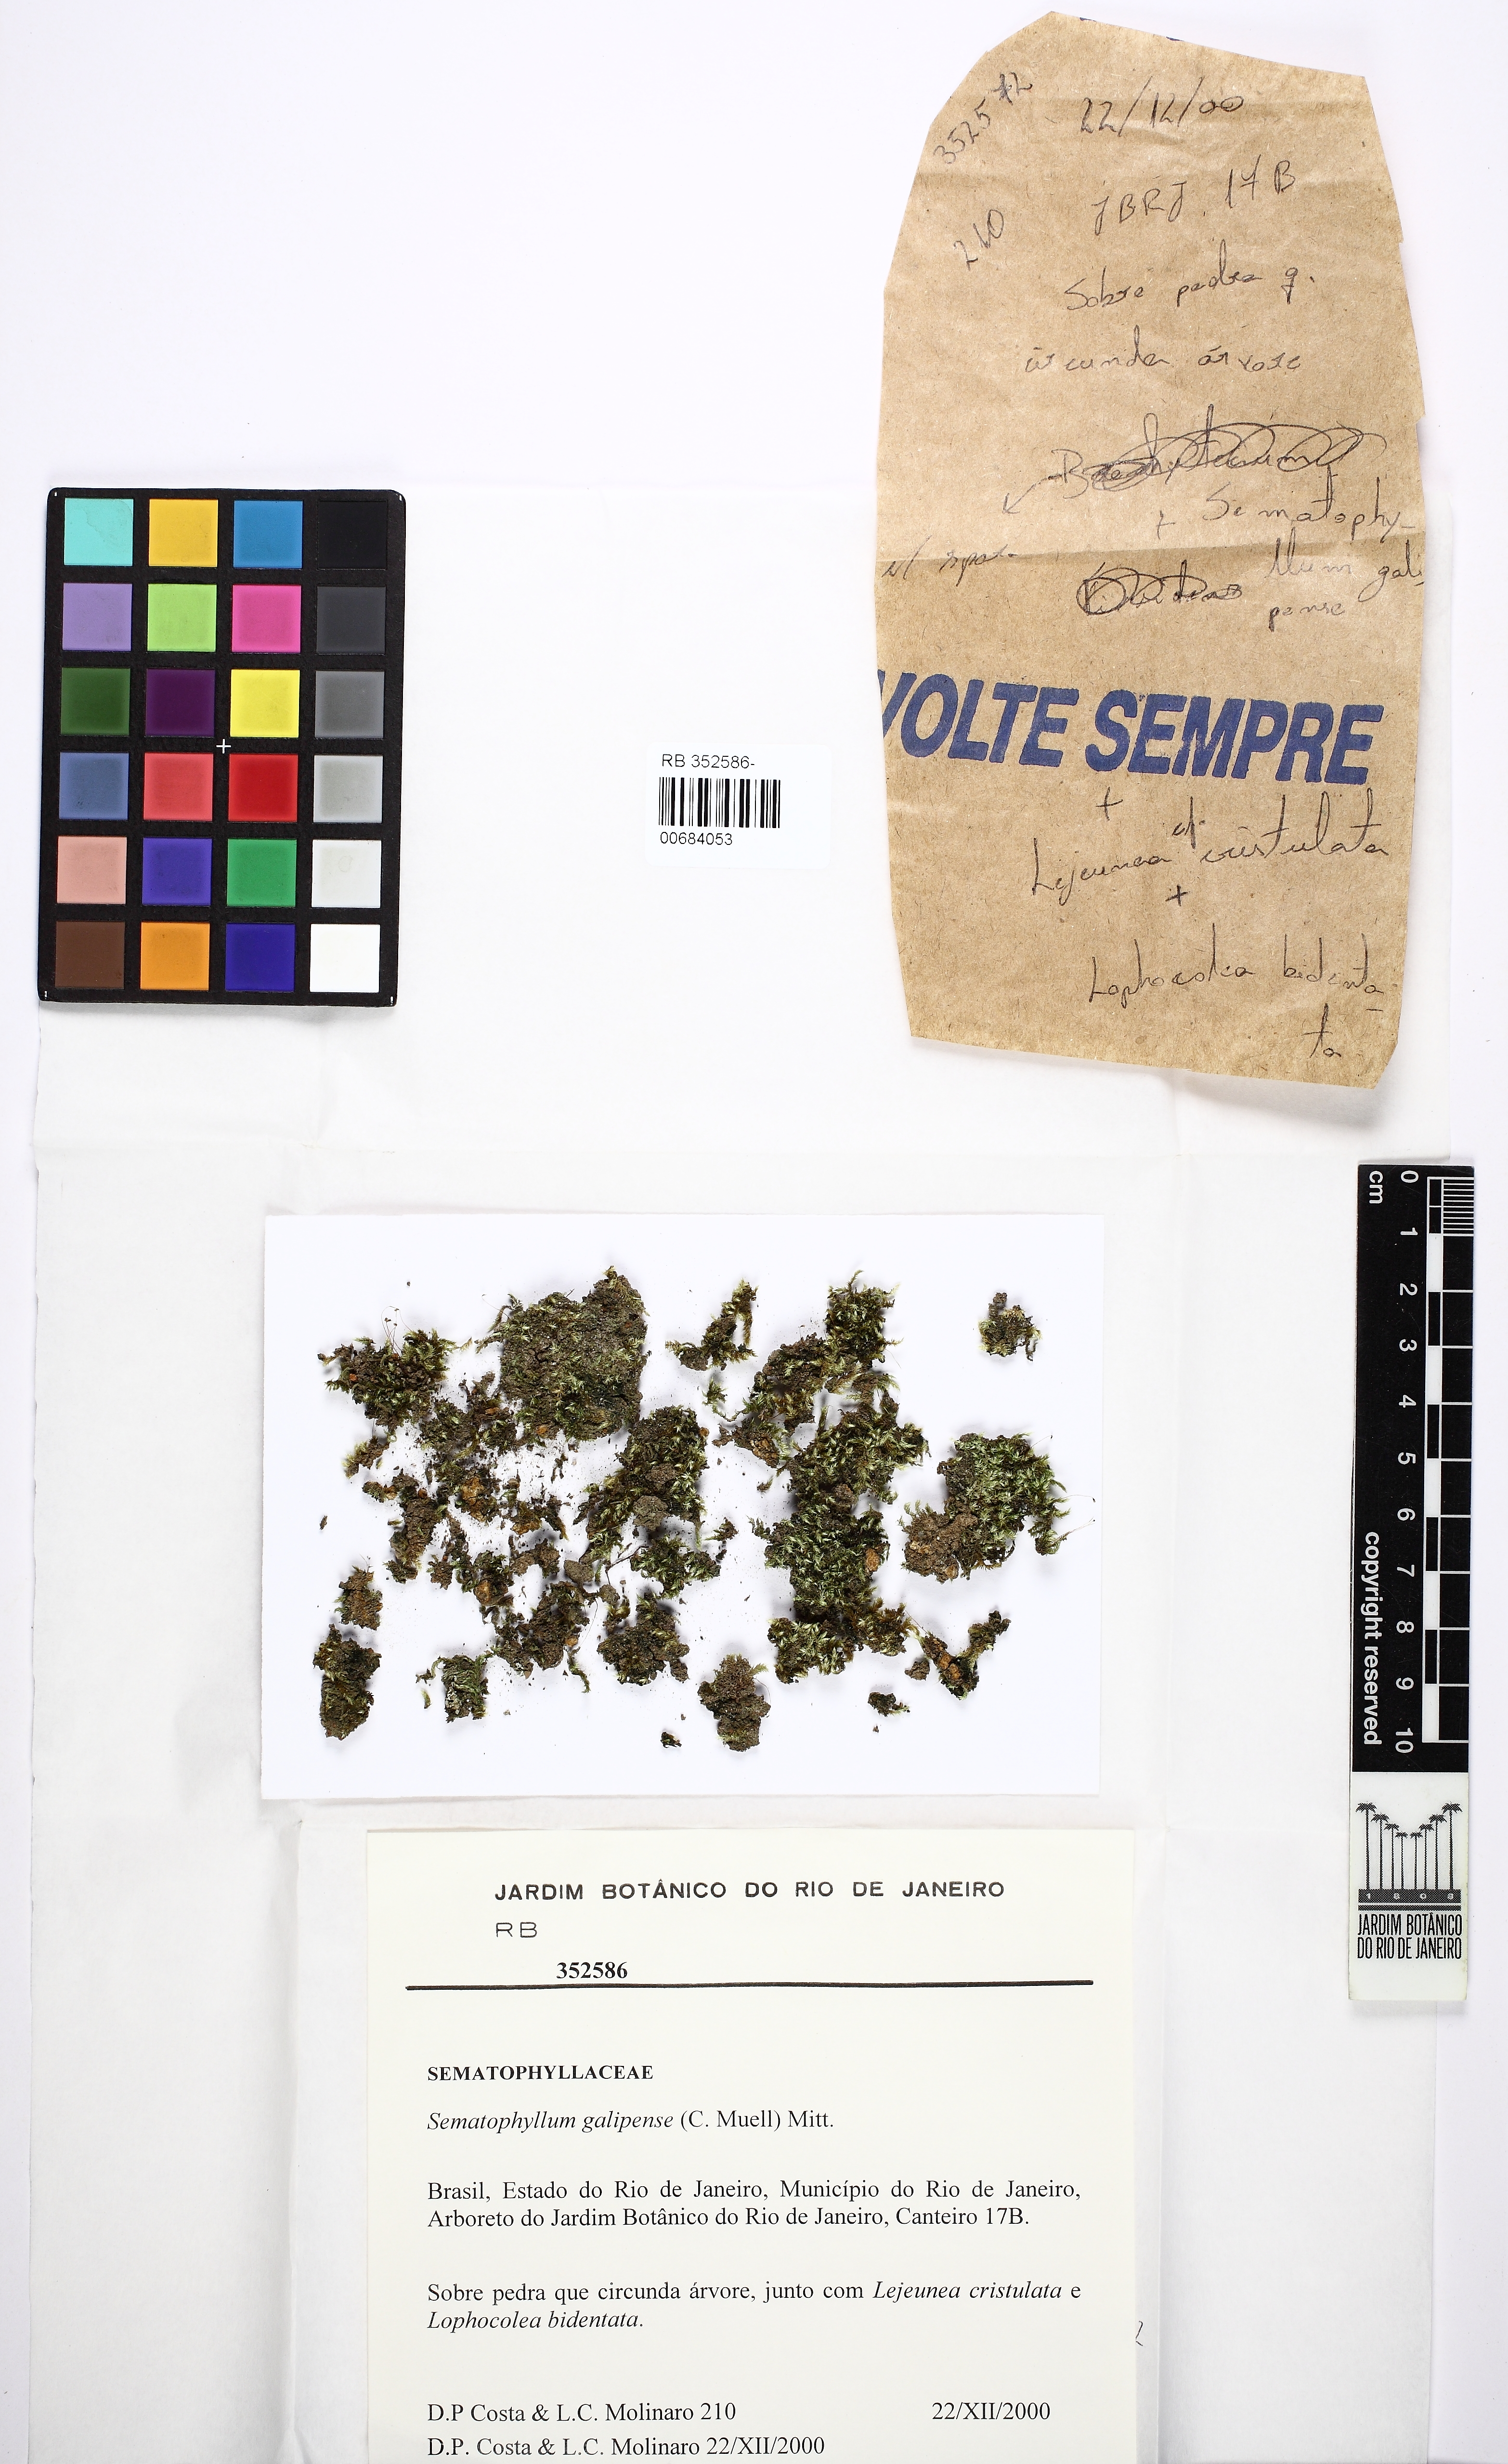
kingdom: Plantae
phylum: Bryophyta
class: Bryopsida
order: Hypnales
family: Sematophyllaceae
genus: Jirivanaea
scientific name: Jirivanaea galipensis
